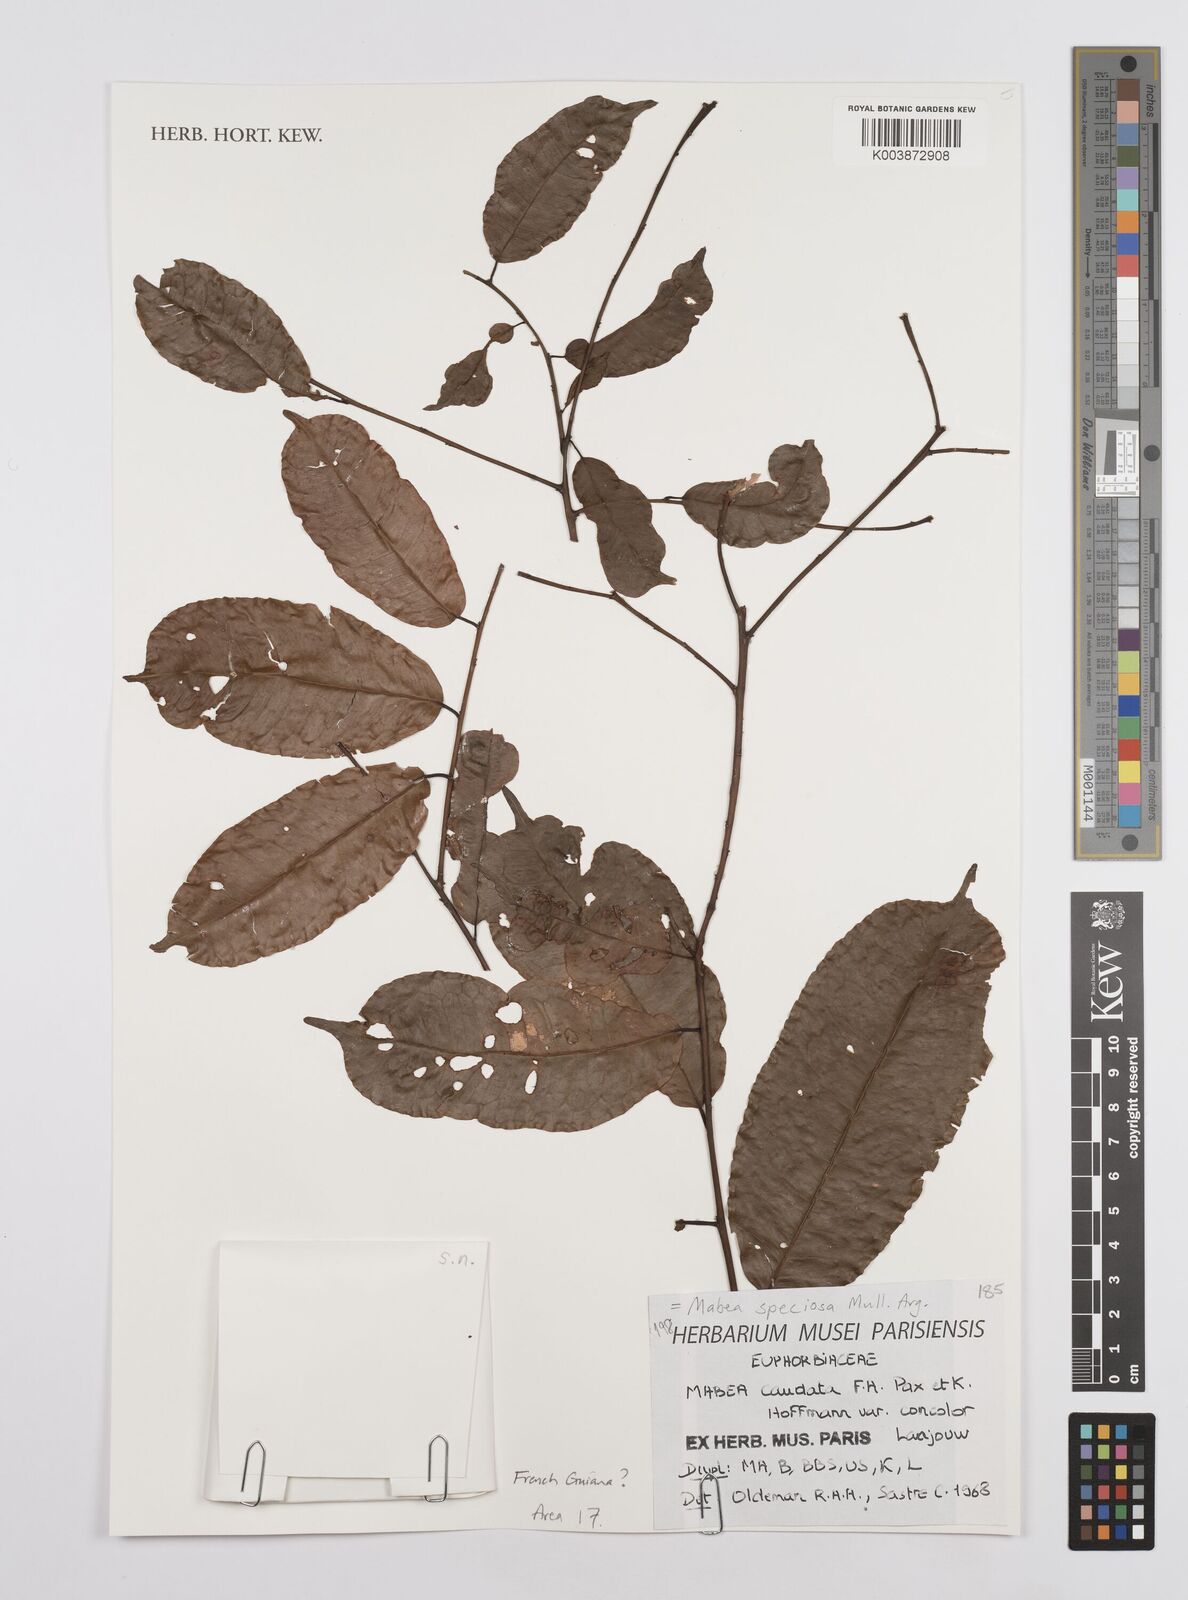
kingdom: Plantae
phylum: Tracheophyta
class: Magnoliopsida
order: Malpighiales
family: Euphorbiaceae
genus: Mabea
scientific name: Mabea speciosa
